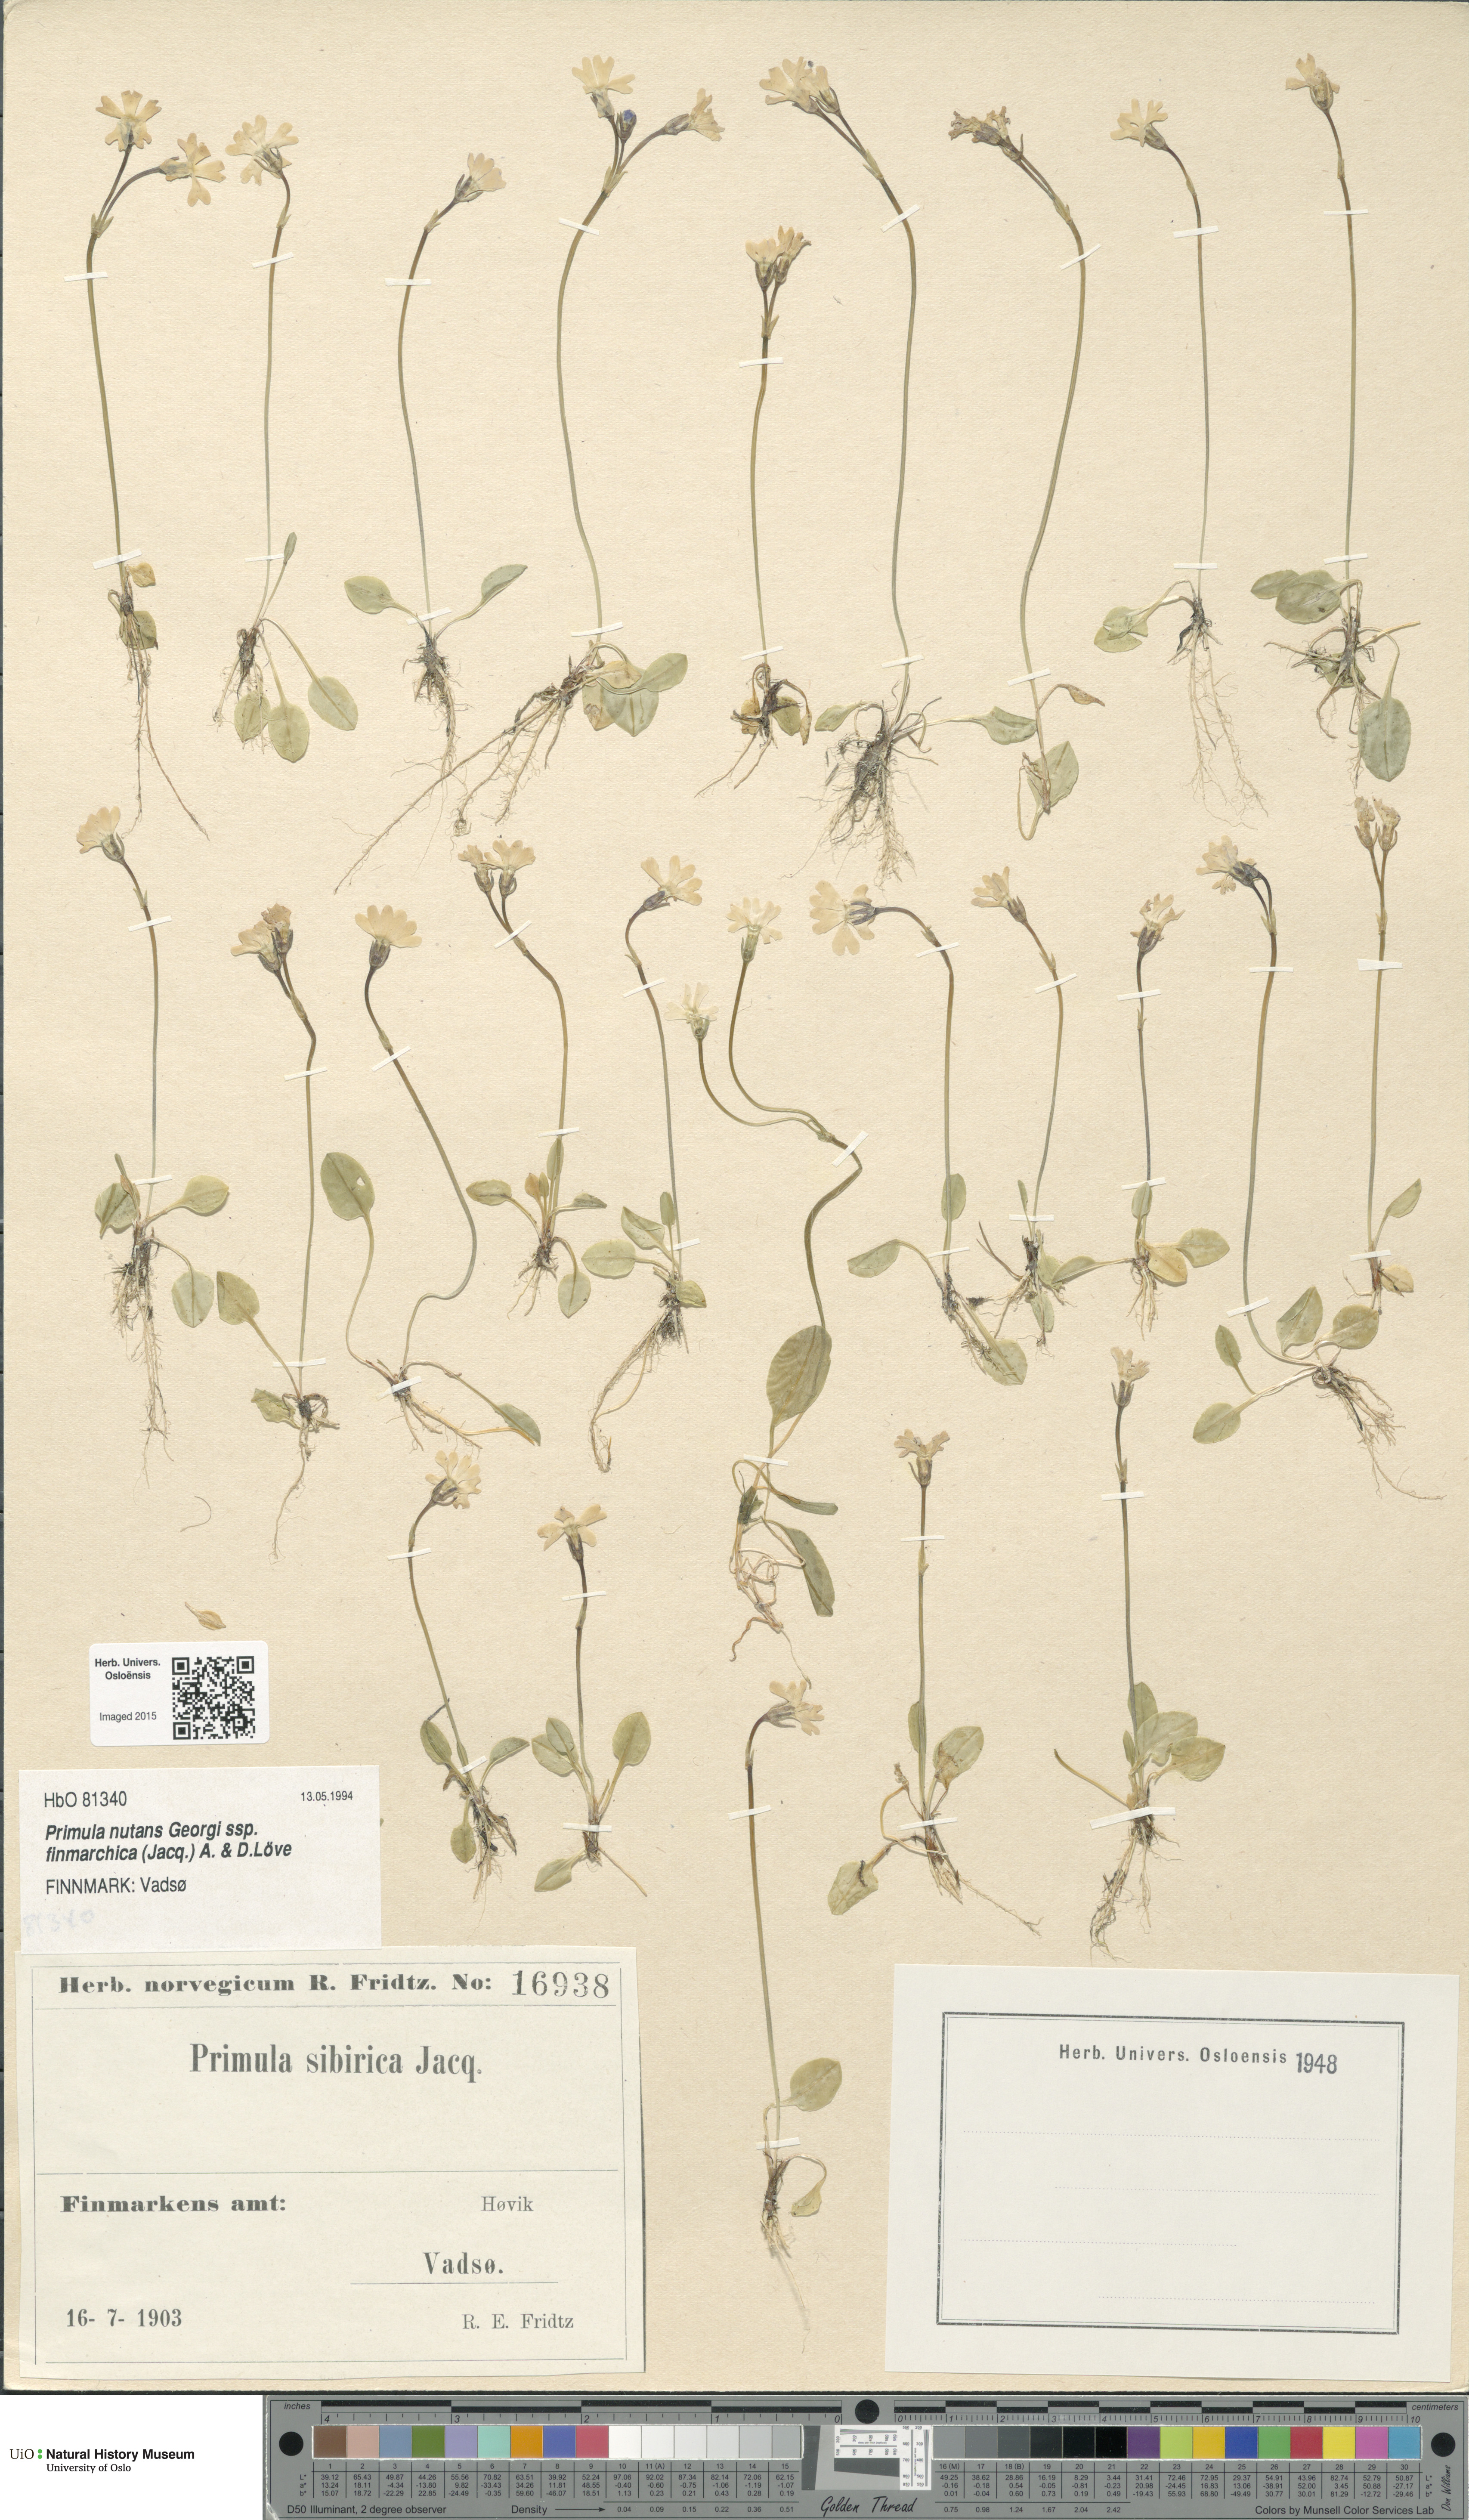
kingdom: Plantae
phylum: Tracheophyta
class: Magnoliopsida
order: Ericales
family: Primulaceae
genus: Primula
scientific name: Primula nutans
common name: Siberian primrose
